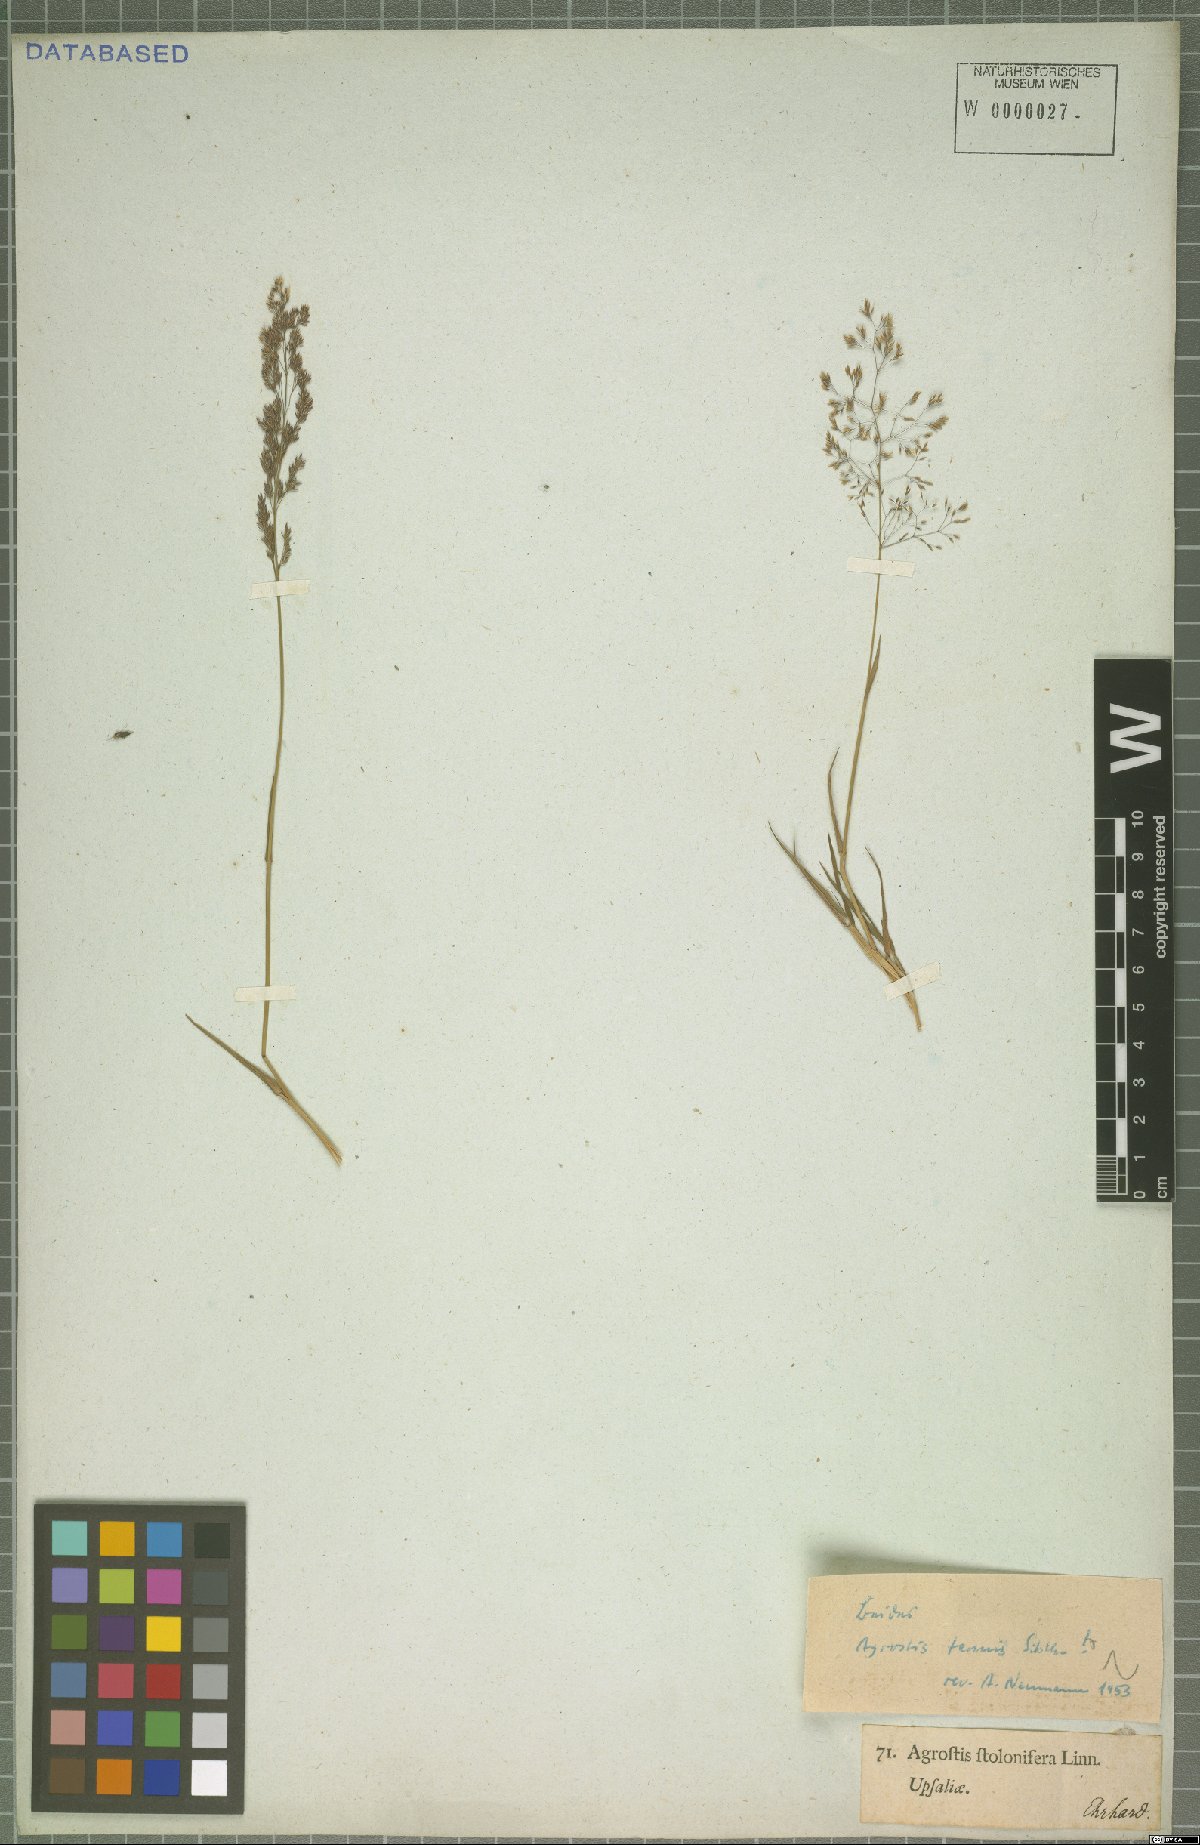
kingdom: Plantae
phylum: Tracheophyta
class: Liliopsida
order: Poales
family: Poaceae
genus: Agrostis
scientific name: Agrostis capillaris
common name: Colonial bentgrass
